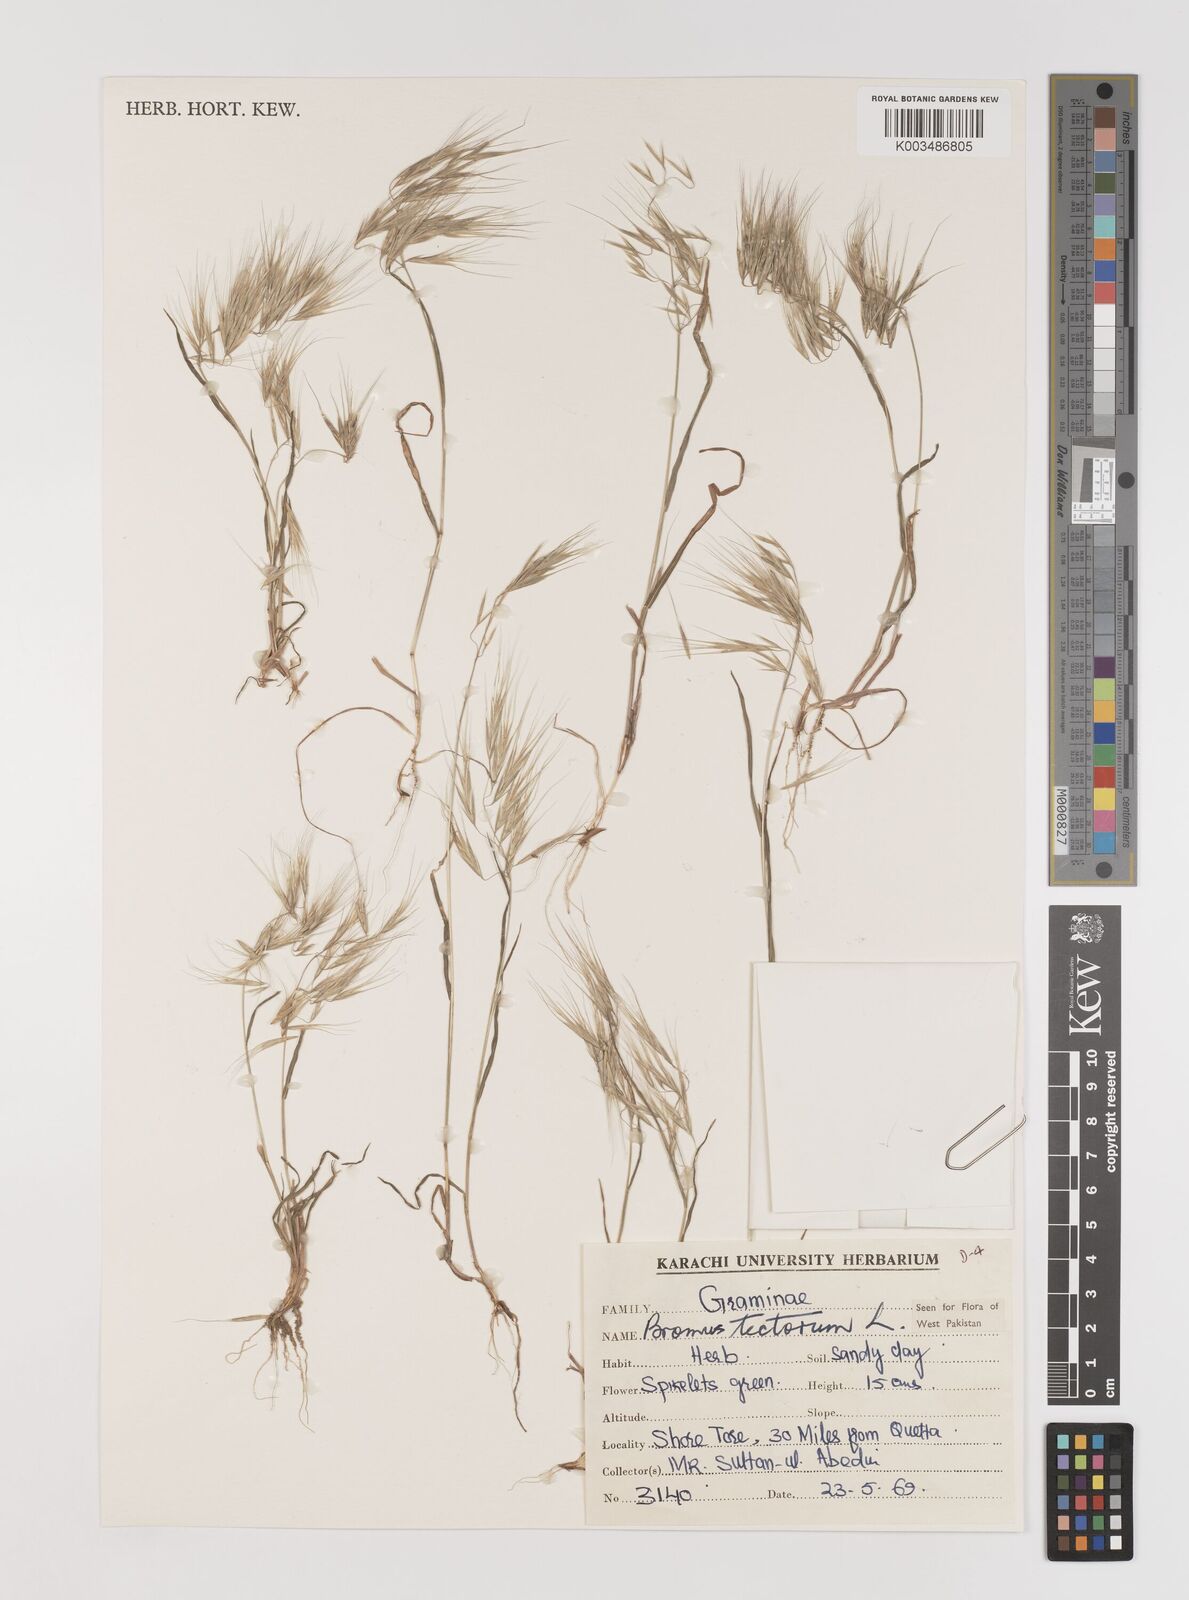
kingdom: Plantae
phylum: Tracheophyta
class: Liliopsida
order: Poales
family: Poaceae
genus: Bromus
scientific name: Bromus tectorum
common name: Cheatgrass
